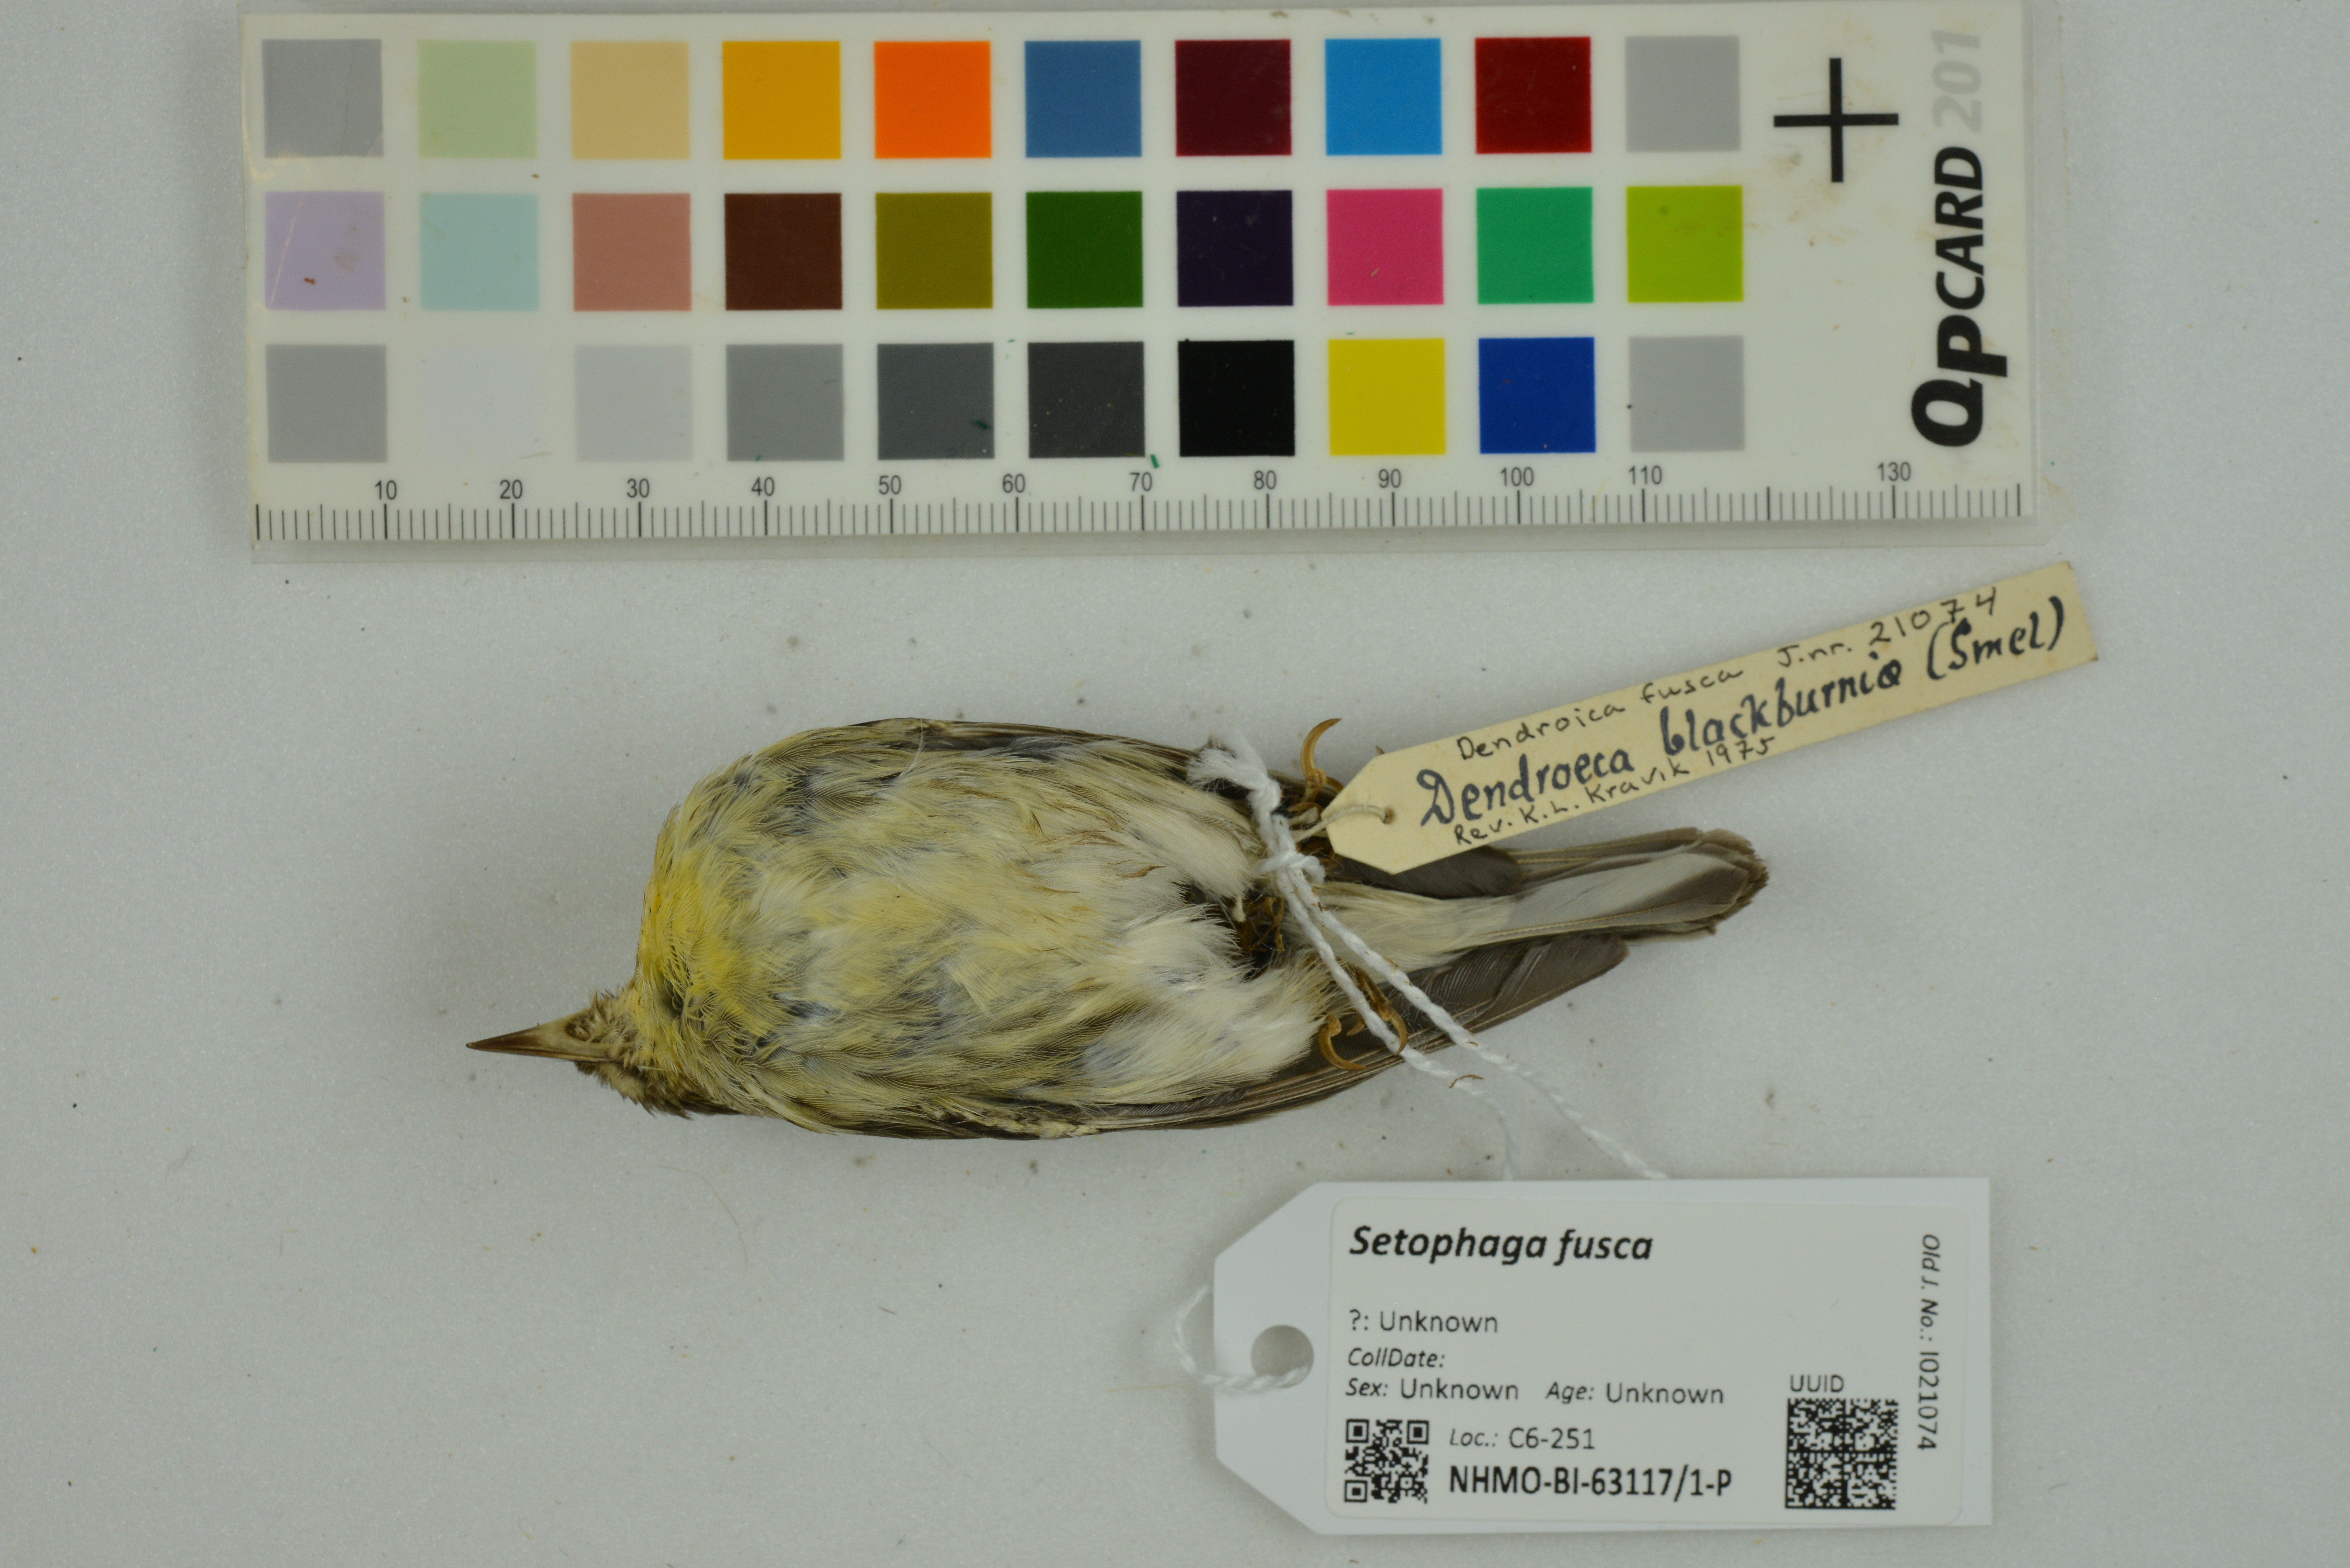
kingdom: Animalia
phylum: Chordata
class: Aves
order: Passeriformes
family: Parulidae
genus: Setophaga
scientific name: Setophaga fusca
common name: Blackburnian warbler
